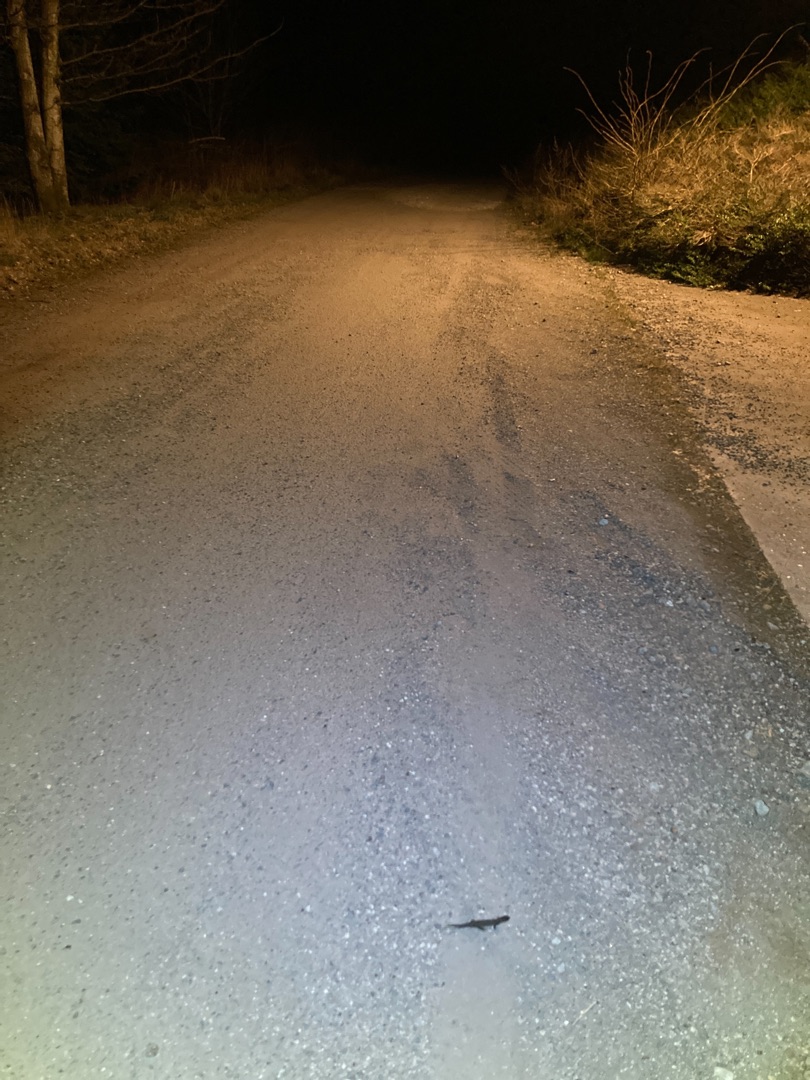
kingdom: Animalia
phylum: Chordata
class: Amphibia
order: Caudata
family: Salamandridae
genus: Triturus
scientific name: Triturus cristatus
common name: Stor vandsalamander
